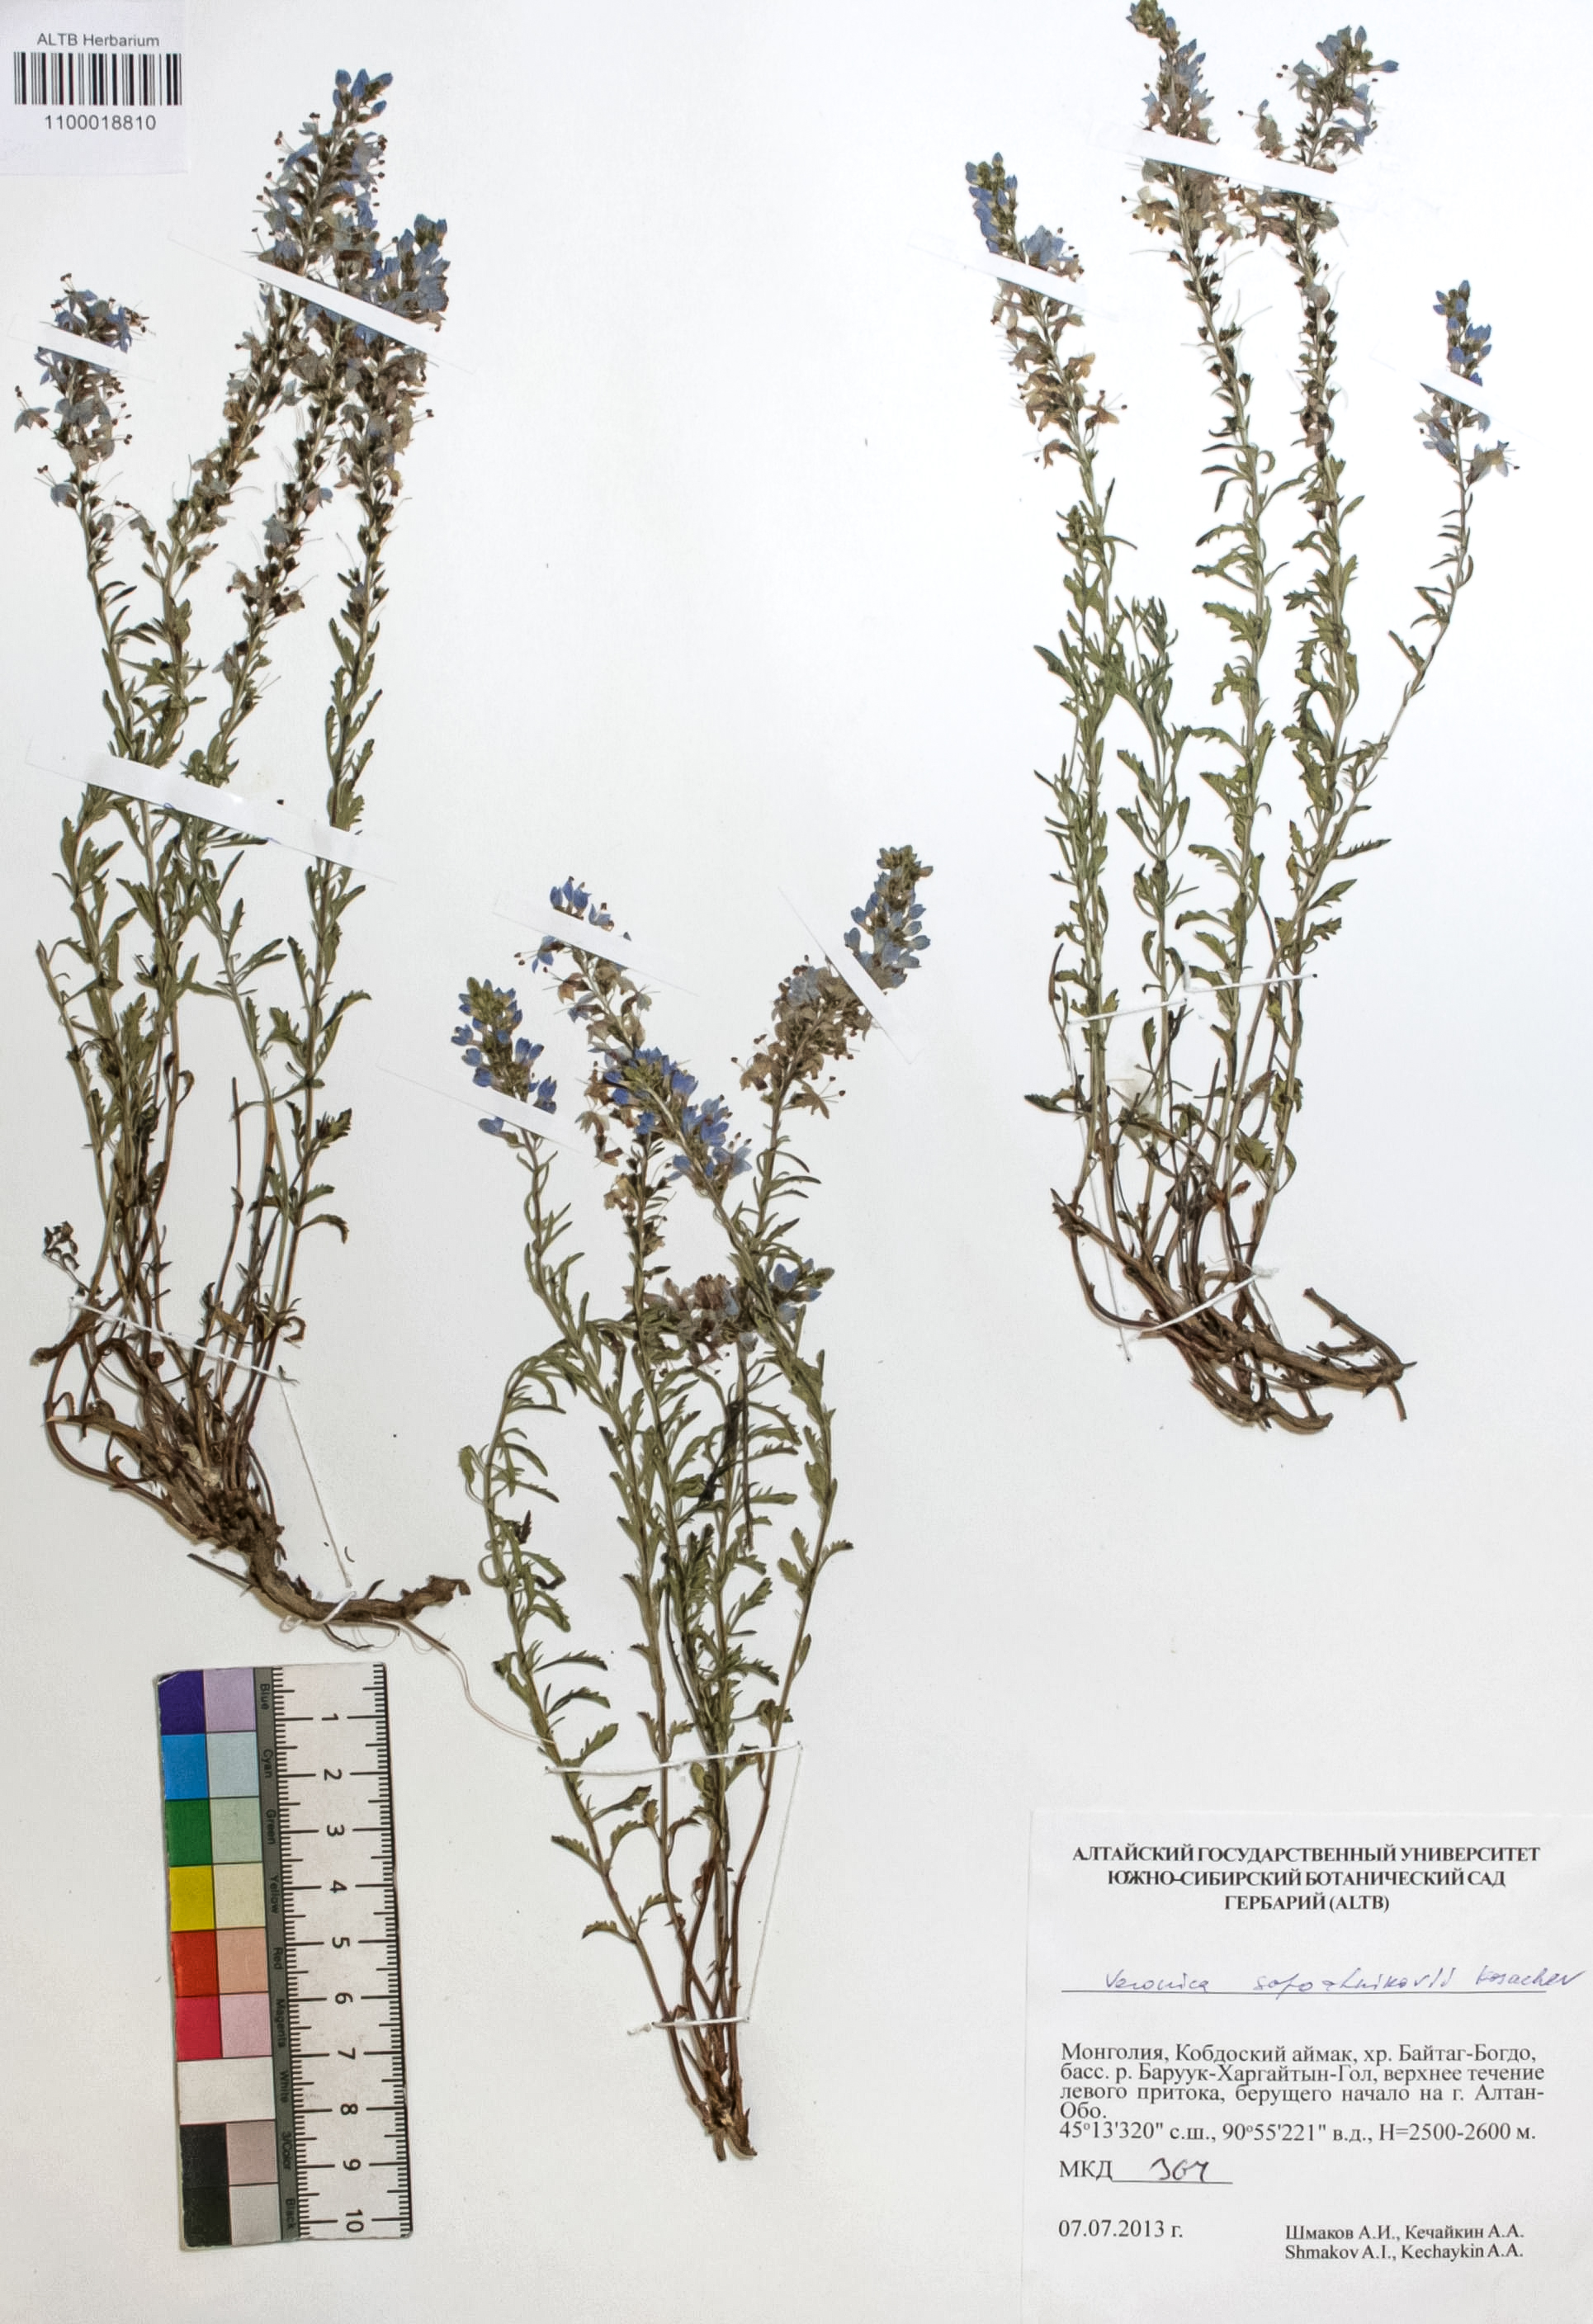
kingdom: Plantae
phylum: Tracheophyta
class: Magnoliopsida
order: Lamiales
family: Plantaginaceae
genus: Veronica
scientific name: Veronica sapozhnikovii
